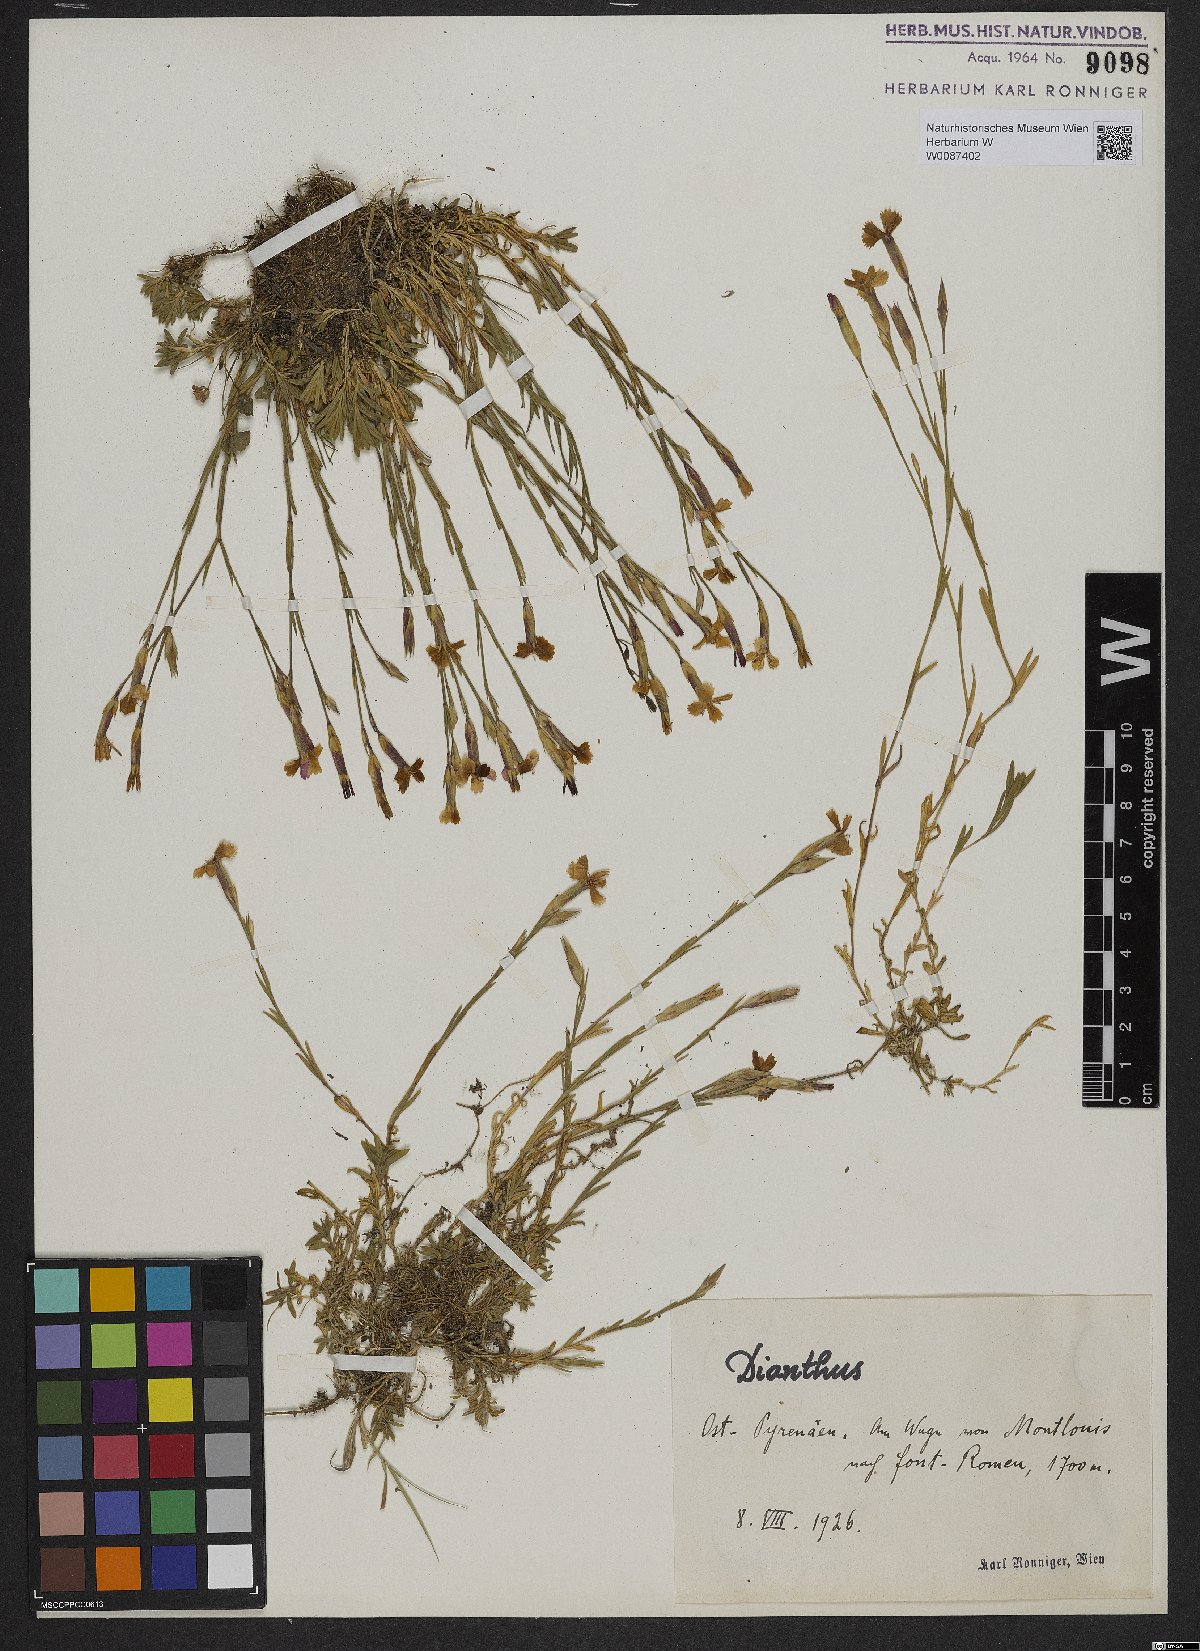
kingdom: Plantae
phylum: Tracheophyta
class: Magnoliopsida
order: Caryophyllales
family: Caryophyllaceae
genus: Dianthus
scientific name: Dianthus
